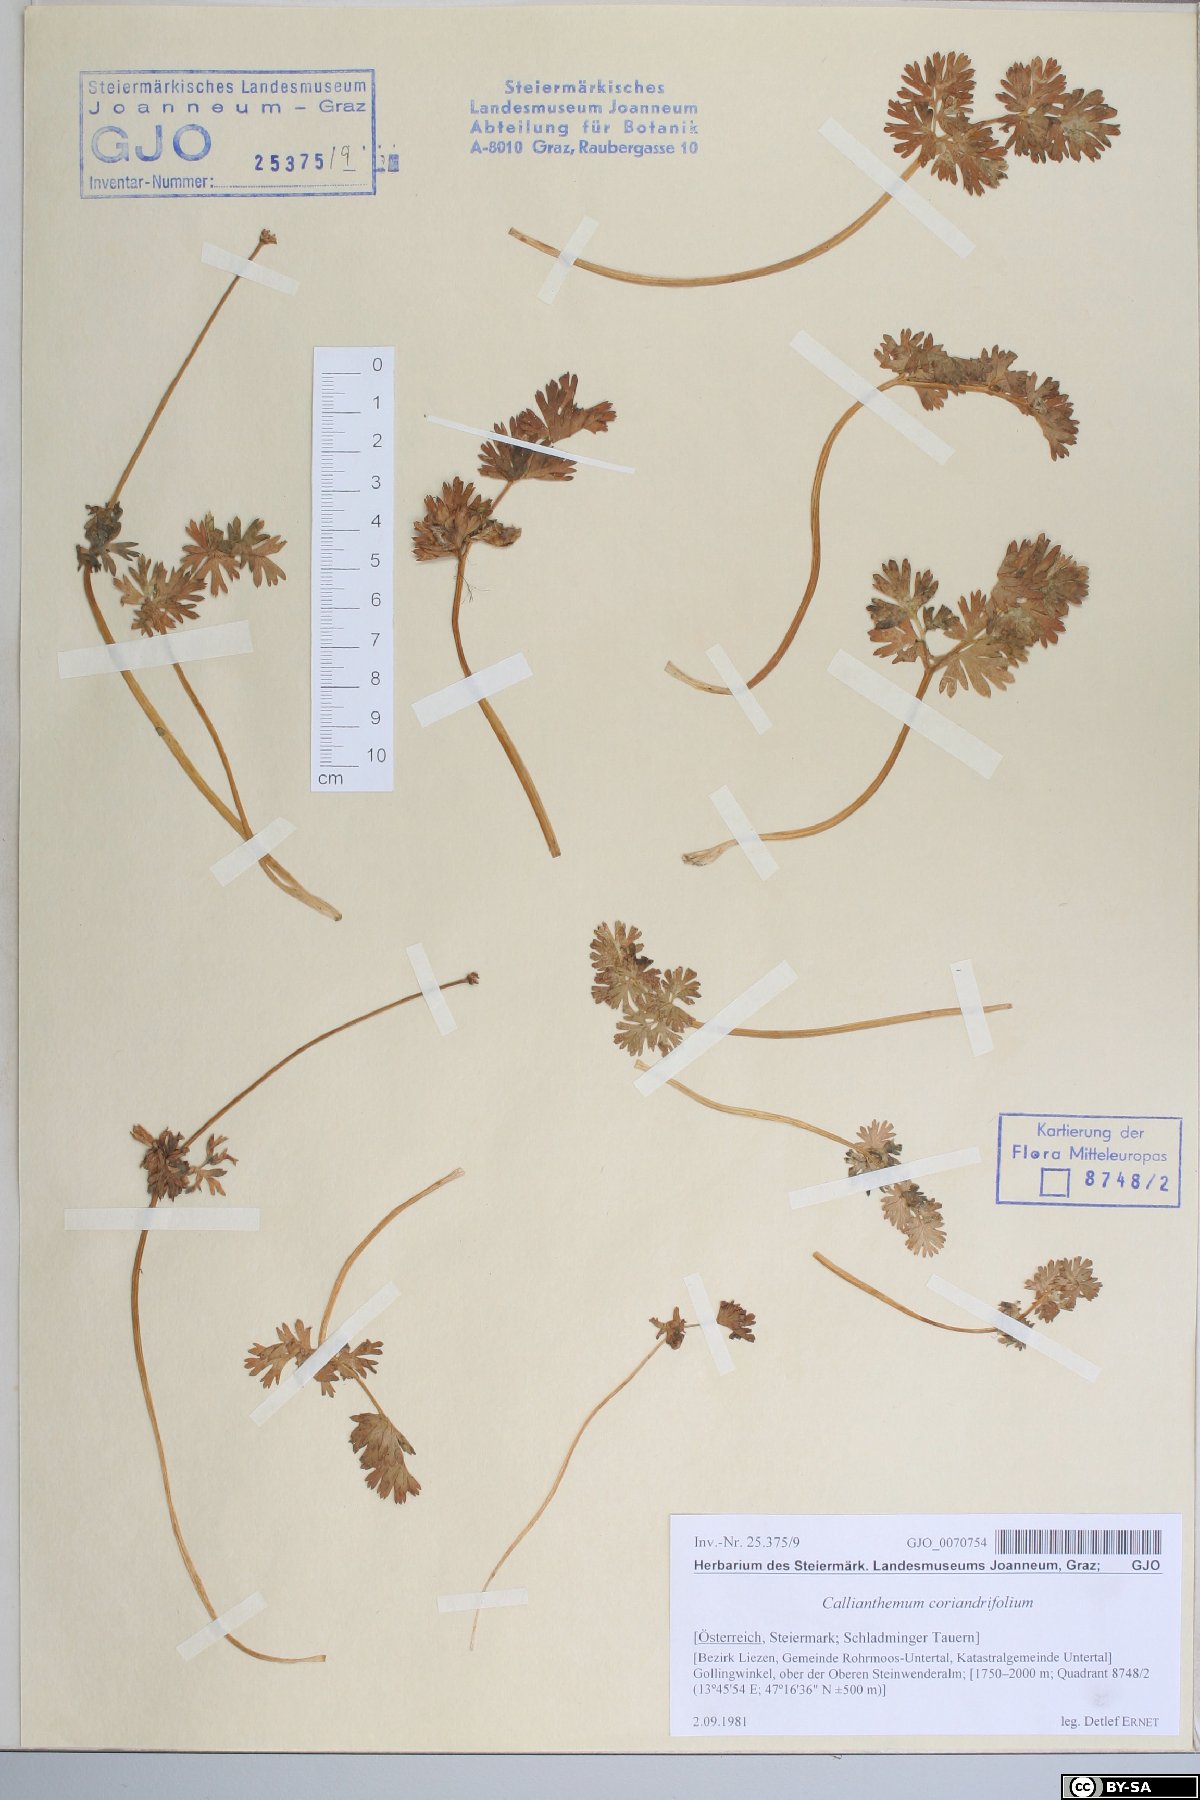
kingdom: Plantae
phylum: Tracheophyta
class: Magnoliopsida
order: Ranunculales
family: Ranunculaceae
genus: Callianthemum
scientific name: Callianthemum coriandrifolium
